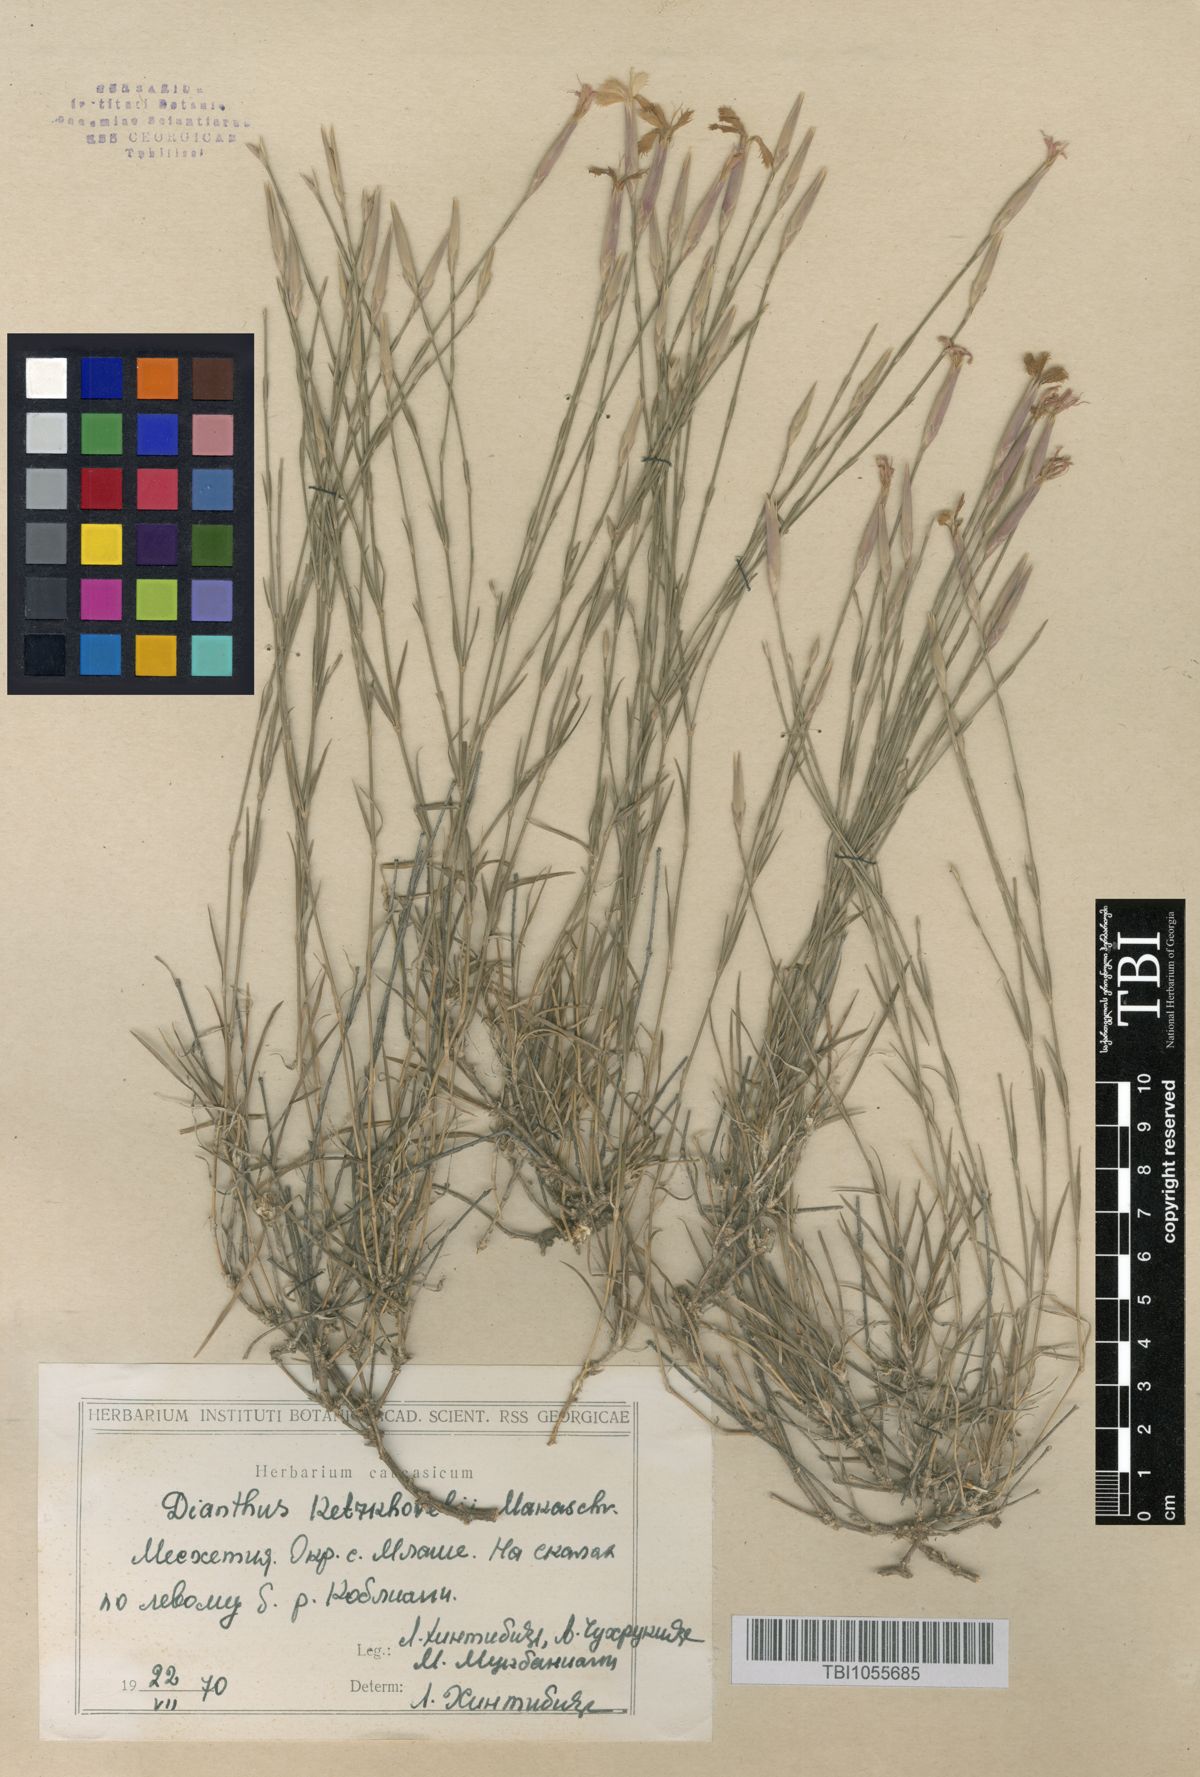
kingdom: Plantae
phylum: Tracheophyta
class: Magnoliopsida
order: Caryophyllales
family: Caryophyllaceae
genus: Dianthus
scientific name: Dianthus orientalis
